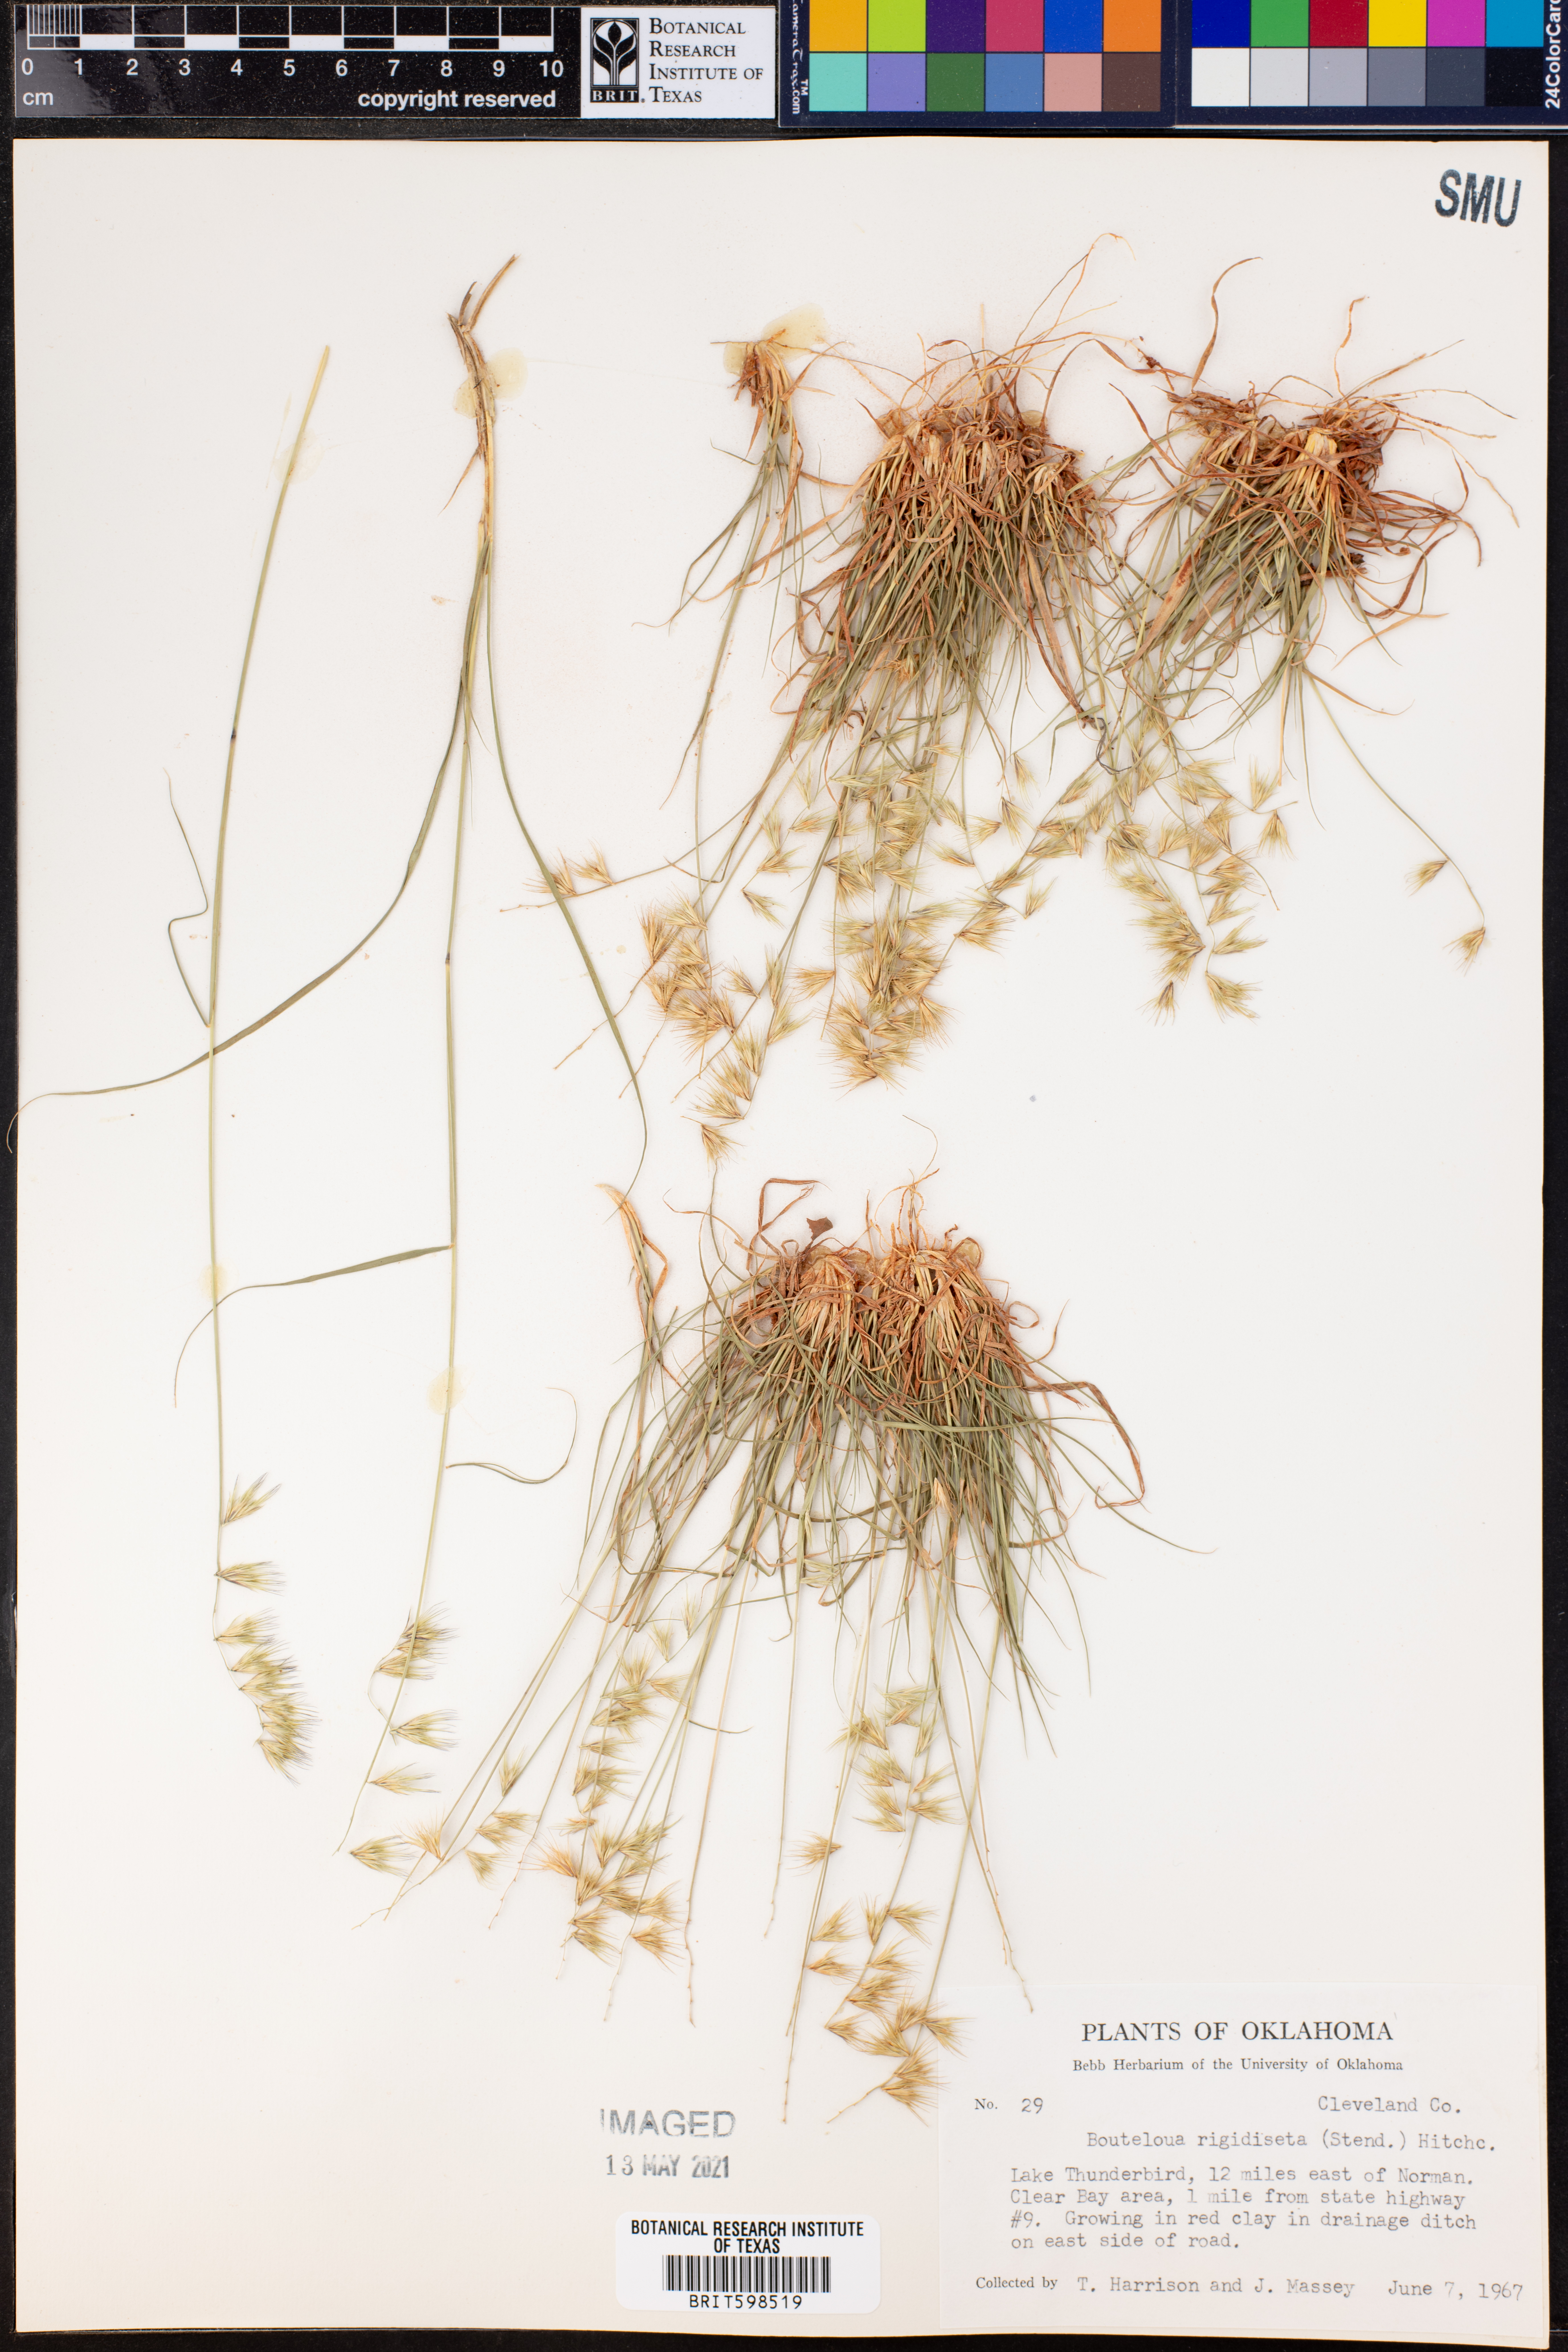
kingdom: Plantae
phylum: Tracheophyta
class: Liliopsida
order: Poales
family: Poaceae
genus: Bouteloua
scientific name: Bouteloua rigidiseta
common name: Texas grama
